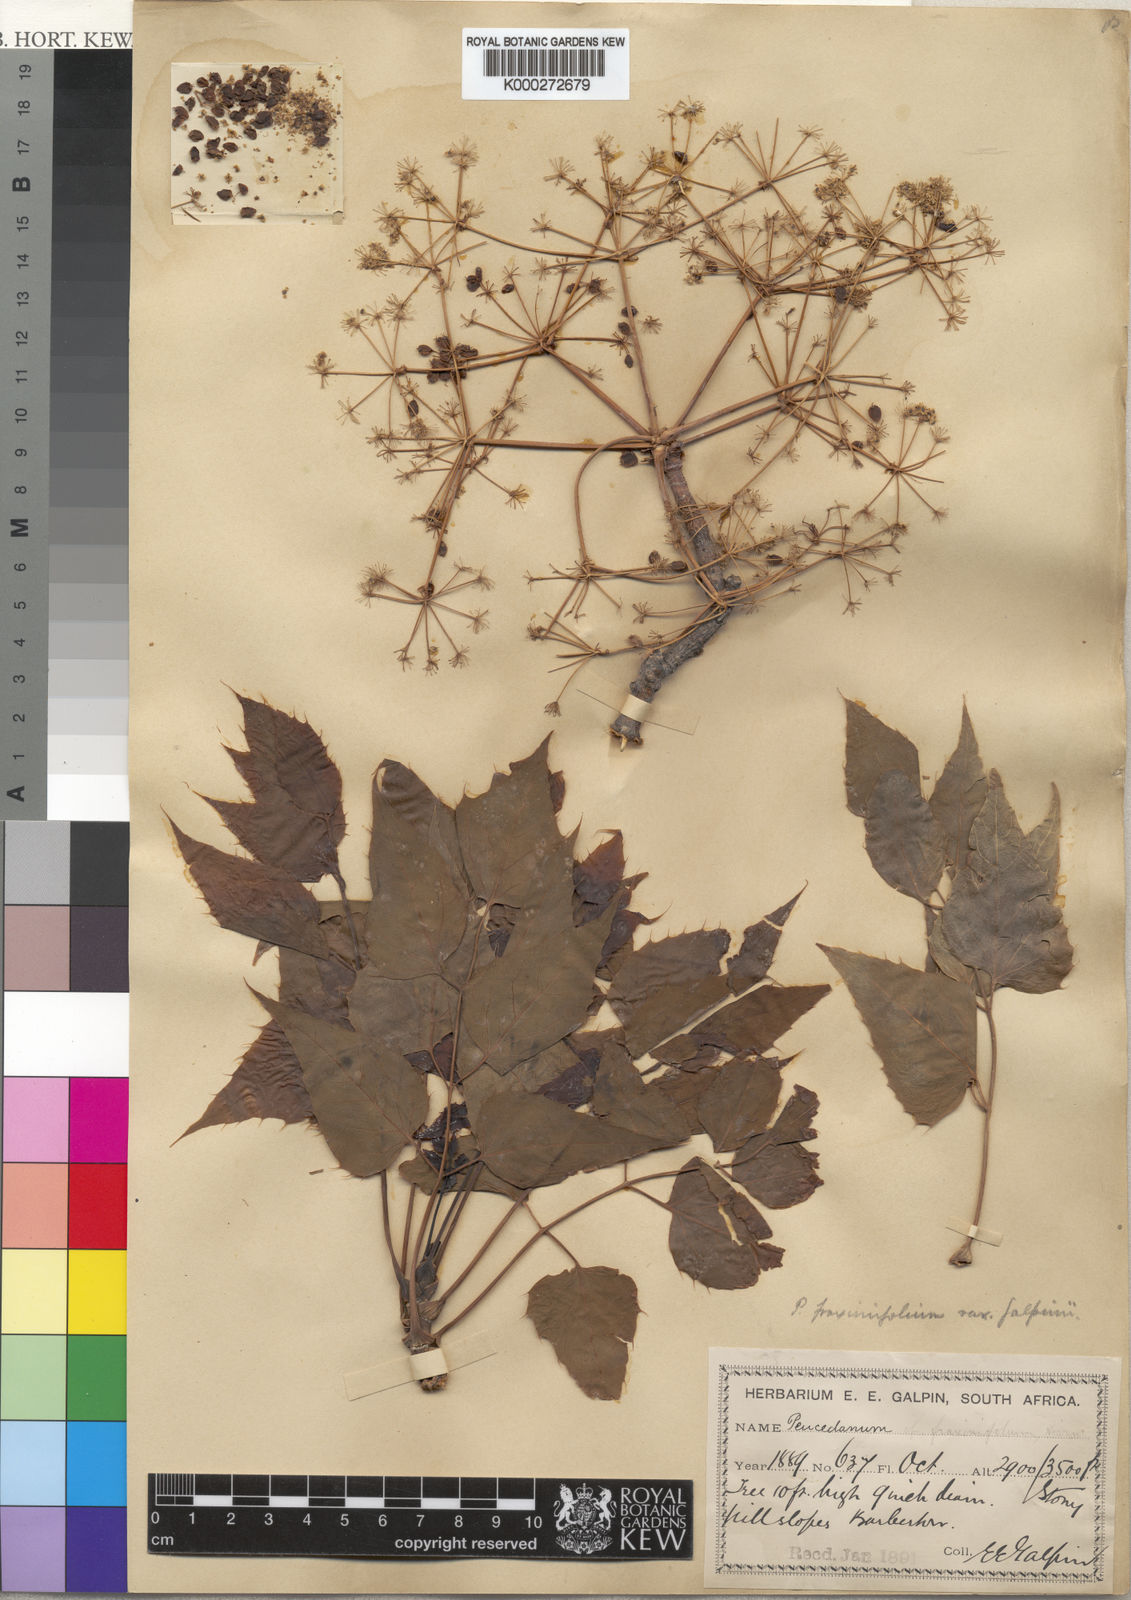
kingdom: Plantae
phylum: Tracheophyta
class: Magnoliopsida
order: Apiales
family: Apiaceae
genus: Steganotaenia
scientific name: Steganotaenia araliacea
